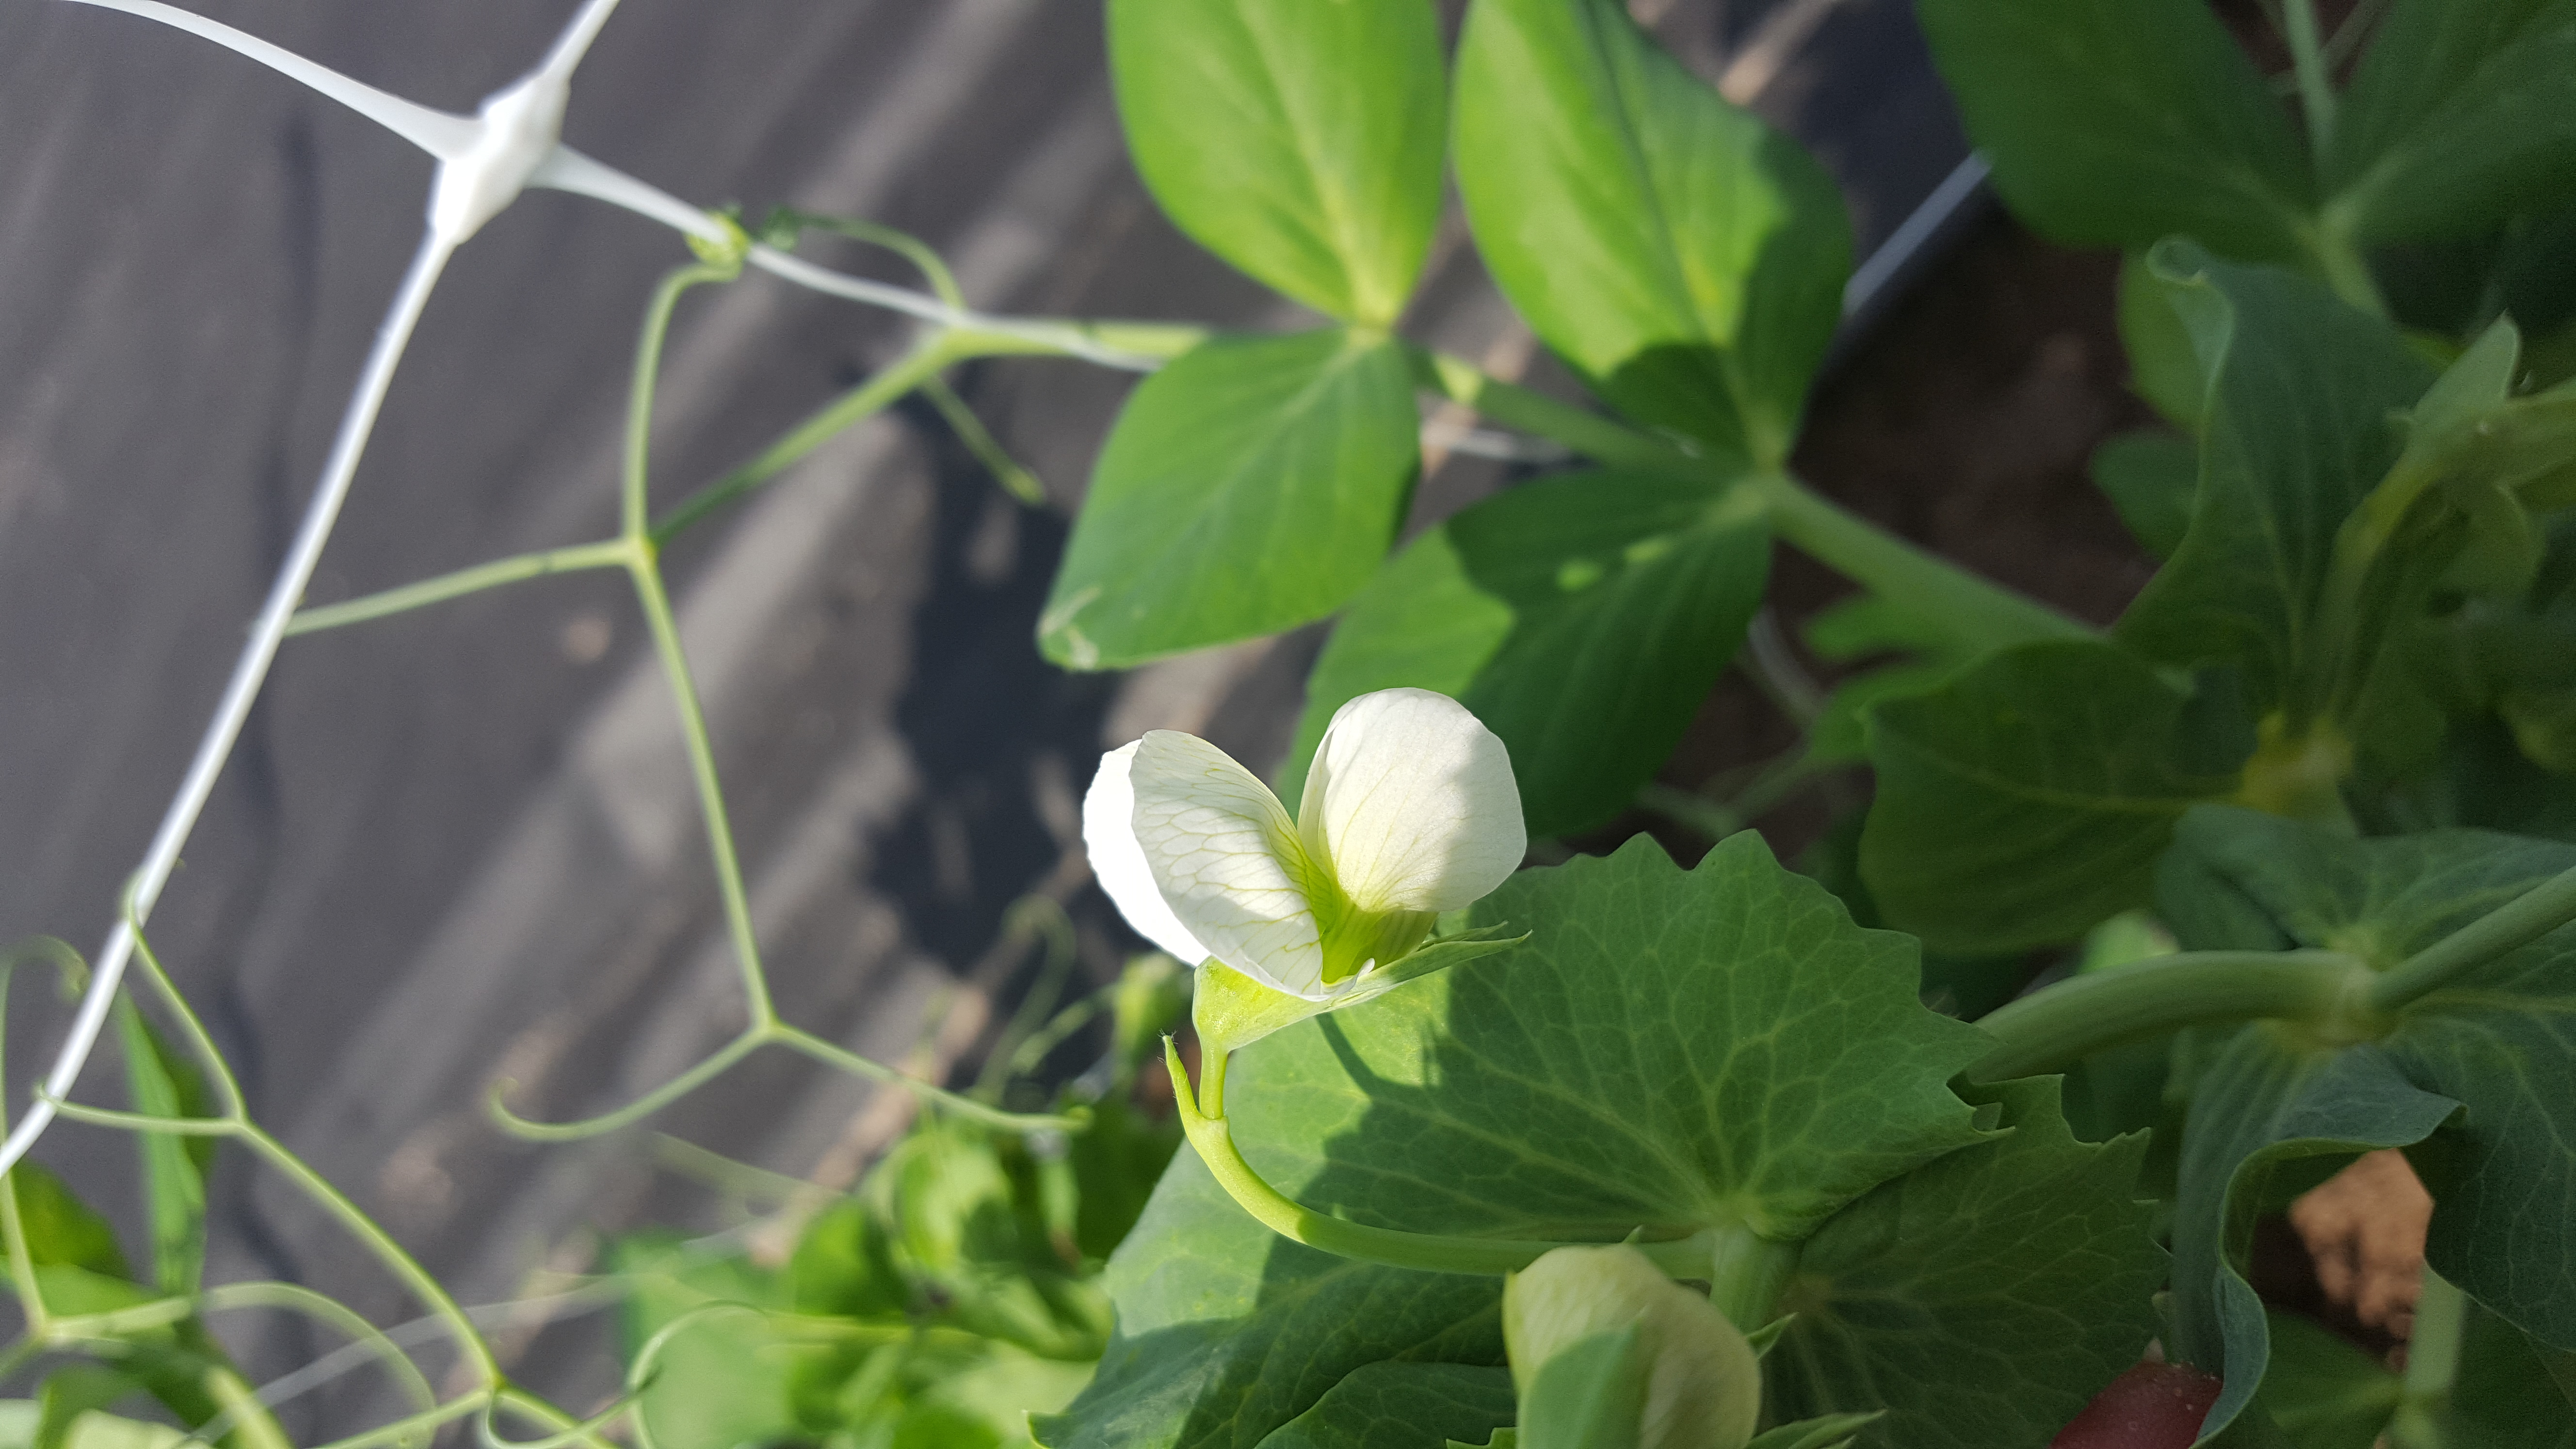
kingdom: Plantae
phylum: Tracheophyta
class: Magnoliopsida
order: Fabales
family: Fabaceae
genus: Lathyrus
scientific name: Lathyrus oleraceus
